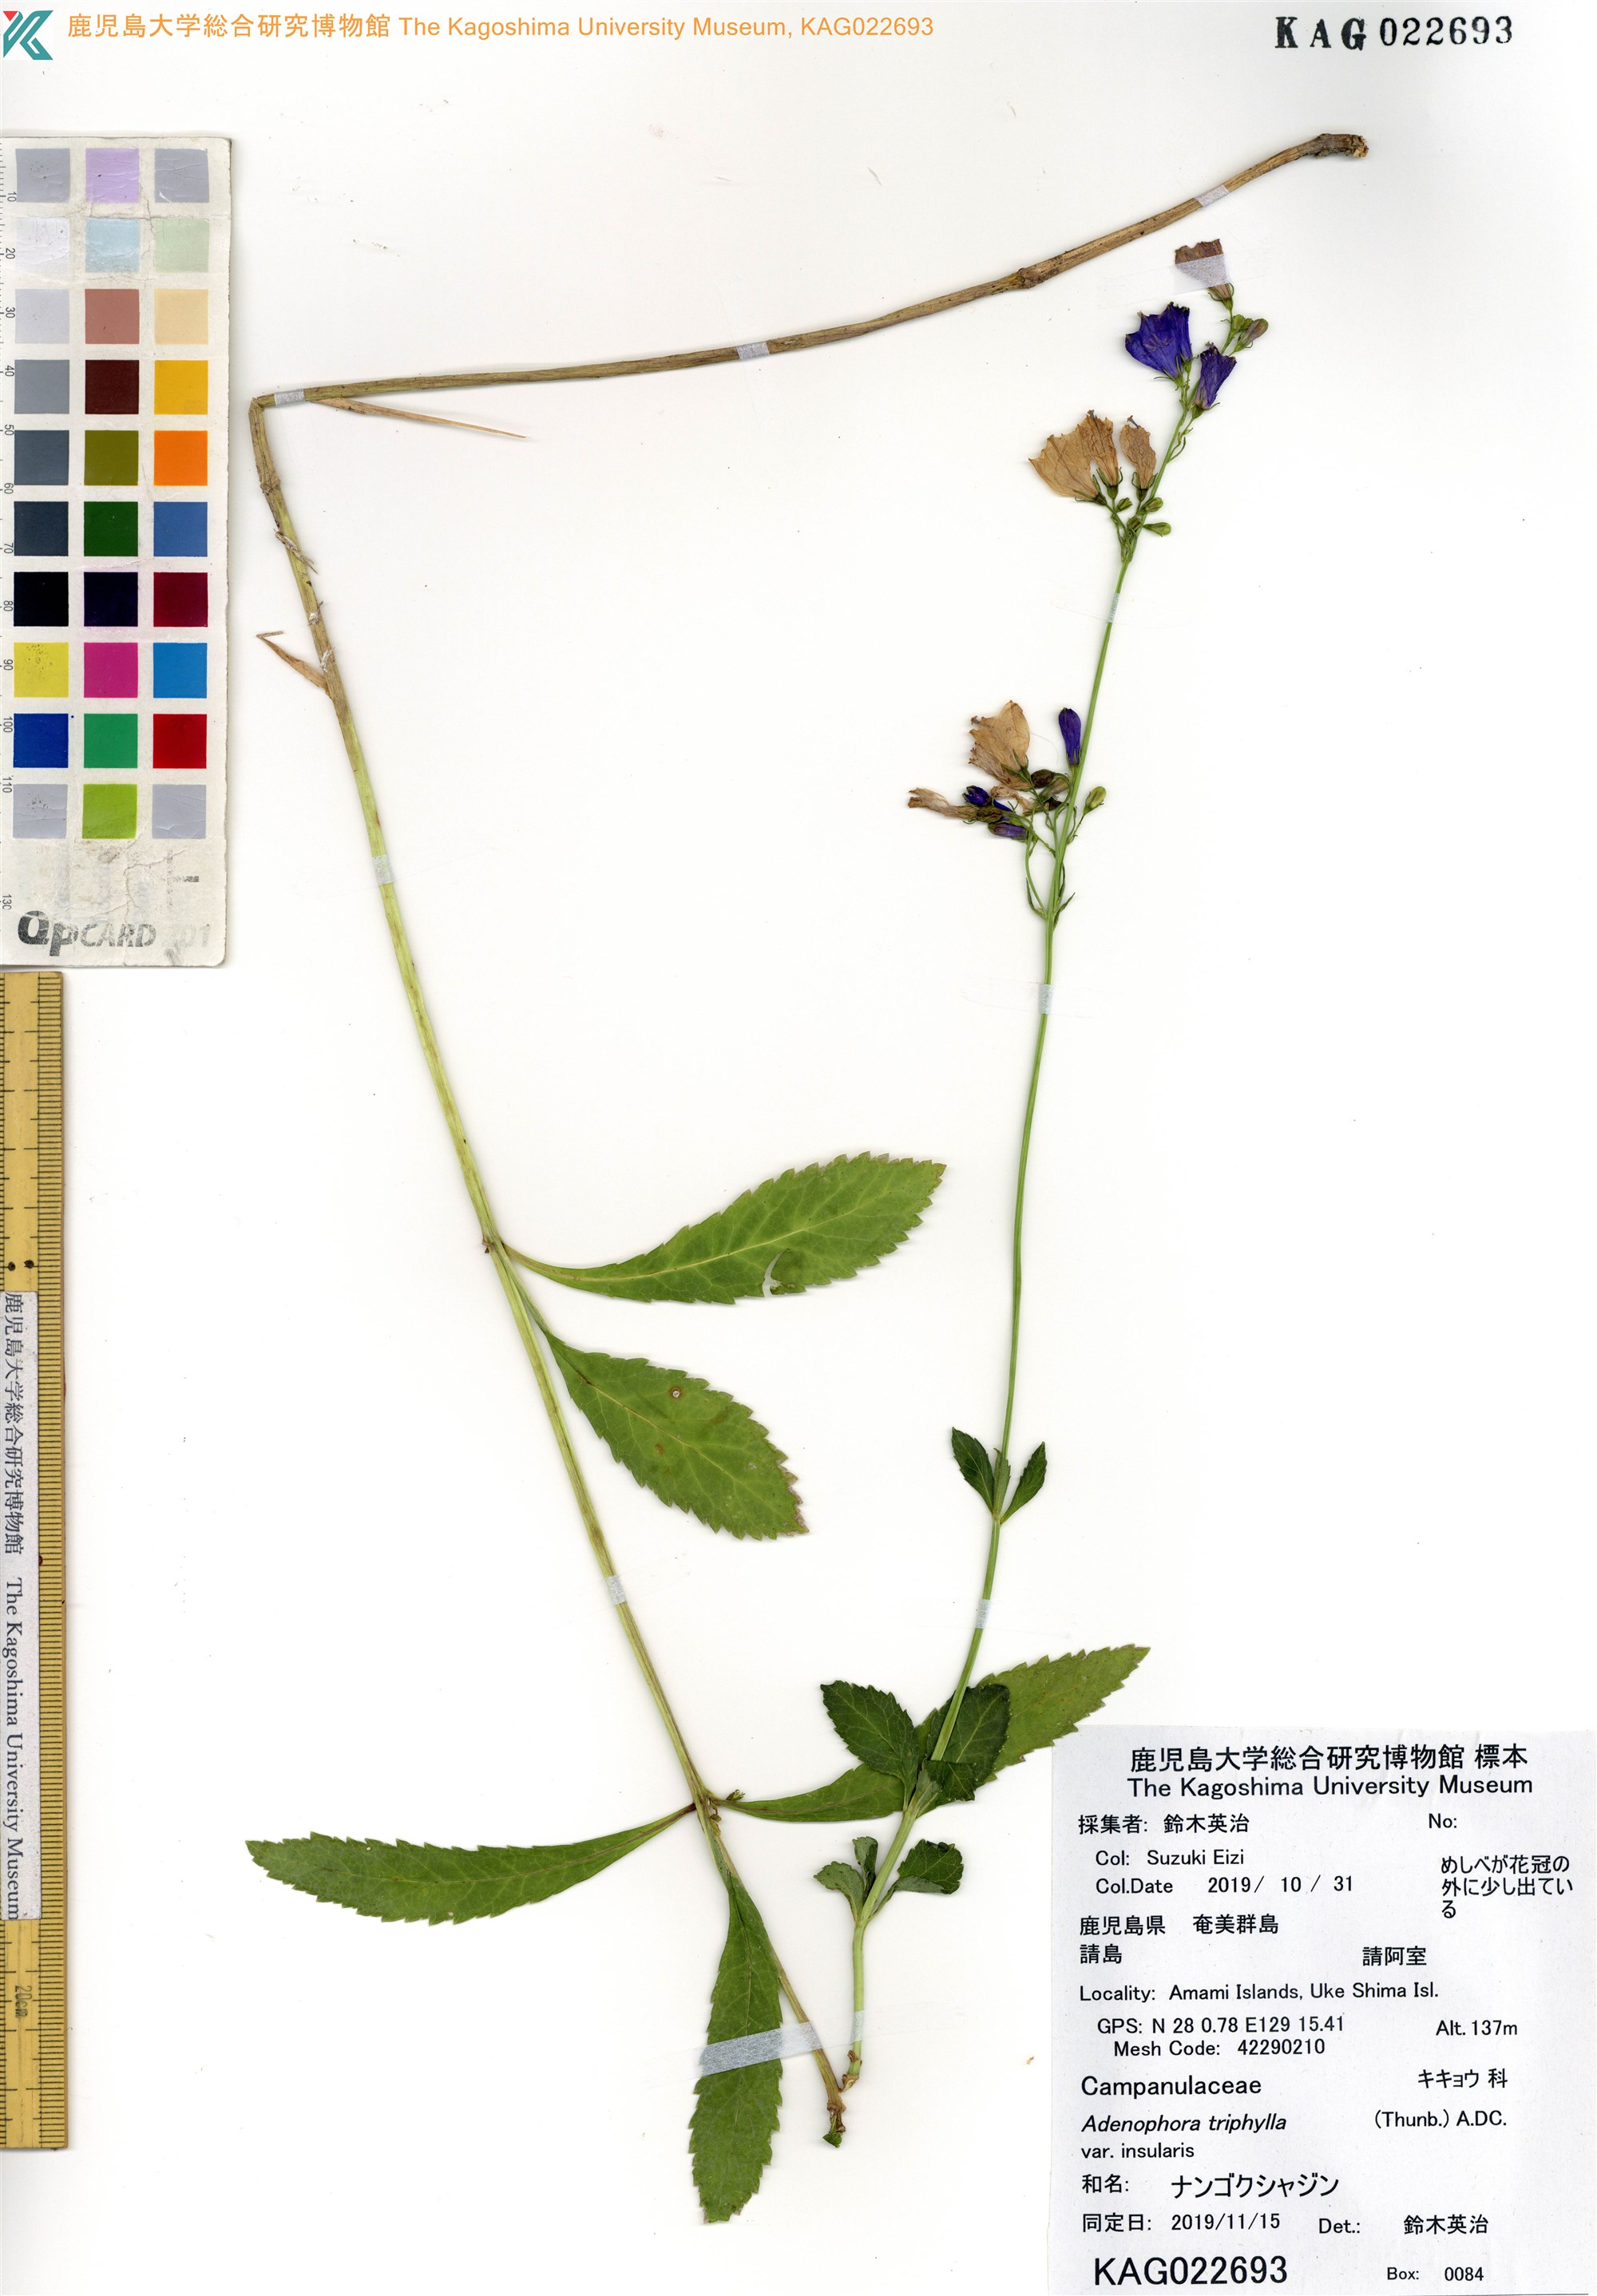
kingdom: Plantae
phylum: Tracheophyta
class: Magnoliopsida
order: Asterales
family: Campanulaceae
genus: Adenophora
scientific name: Adenophora triphylla
